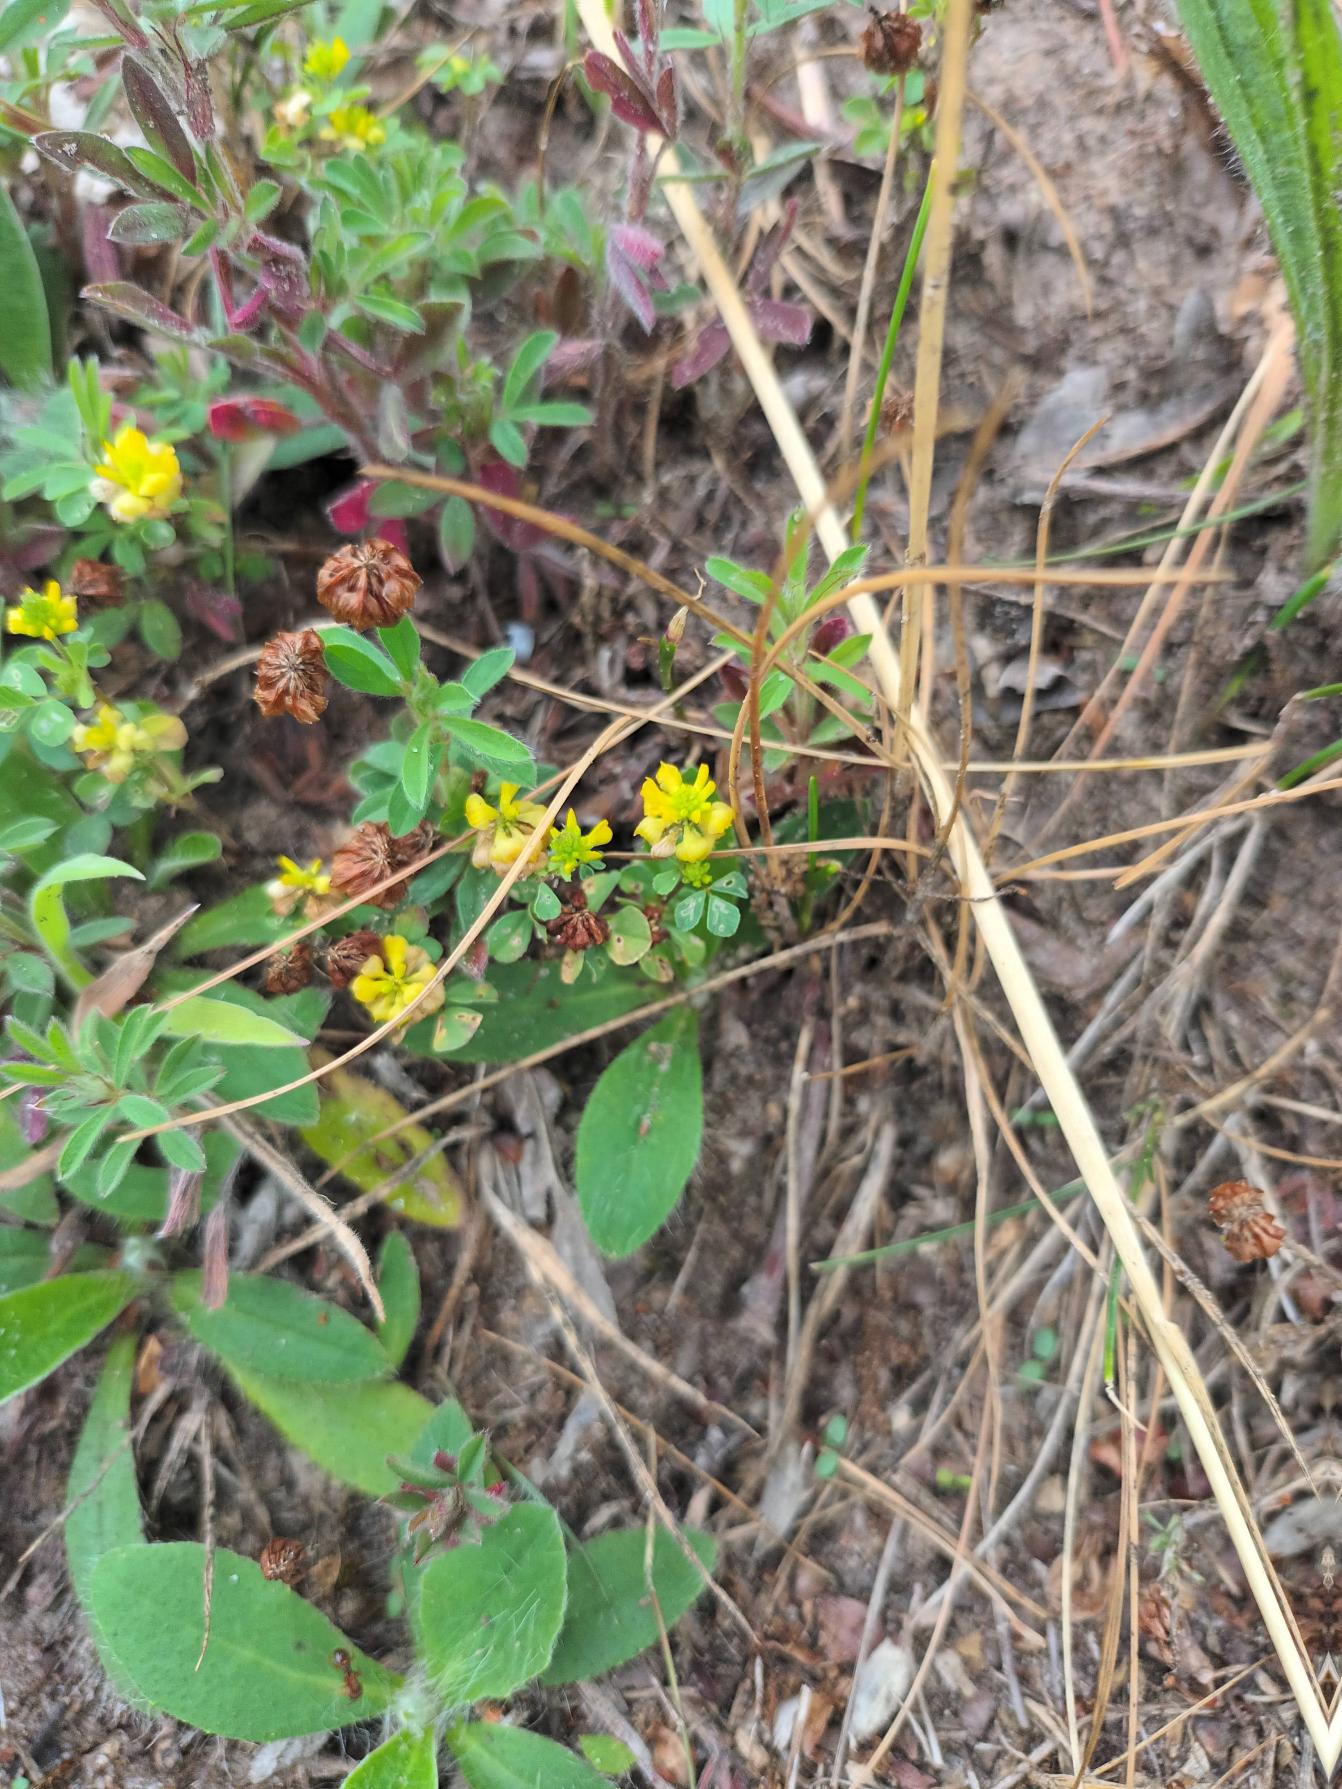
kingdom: Plantae
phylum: Tracheophyta
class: Magnoliopsida
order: Fabales
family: Fabaceae
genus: Trifolium
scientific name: Trifolium campestre
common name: Gul kløver
